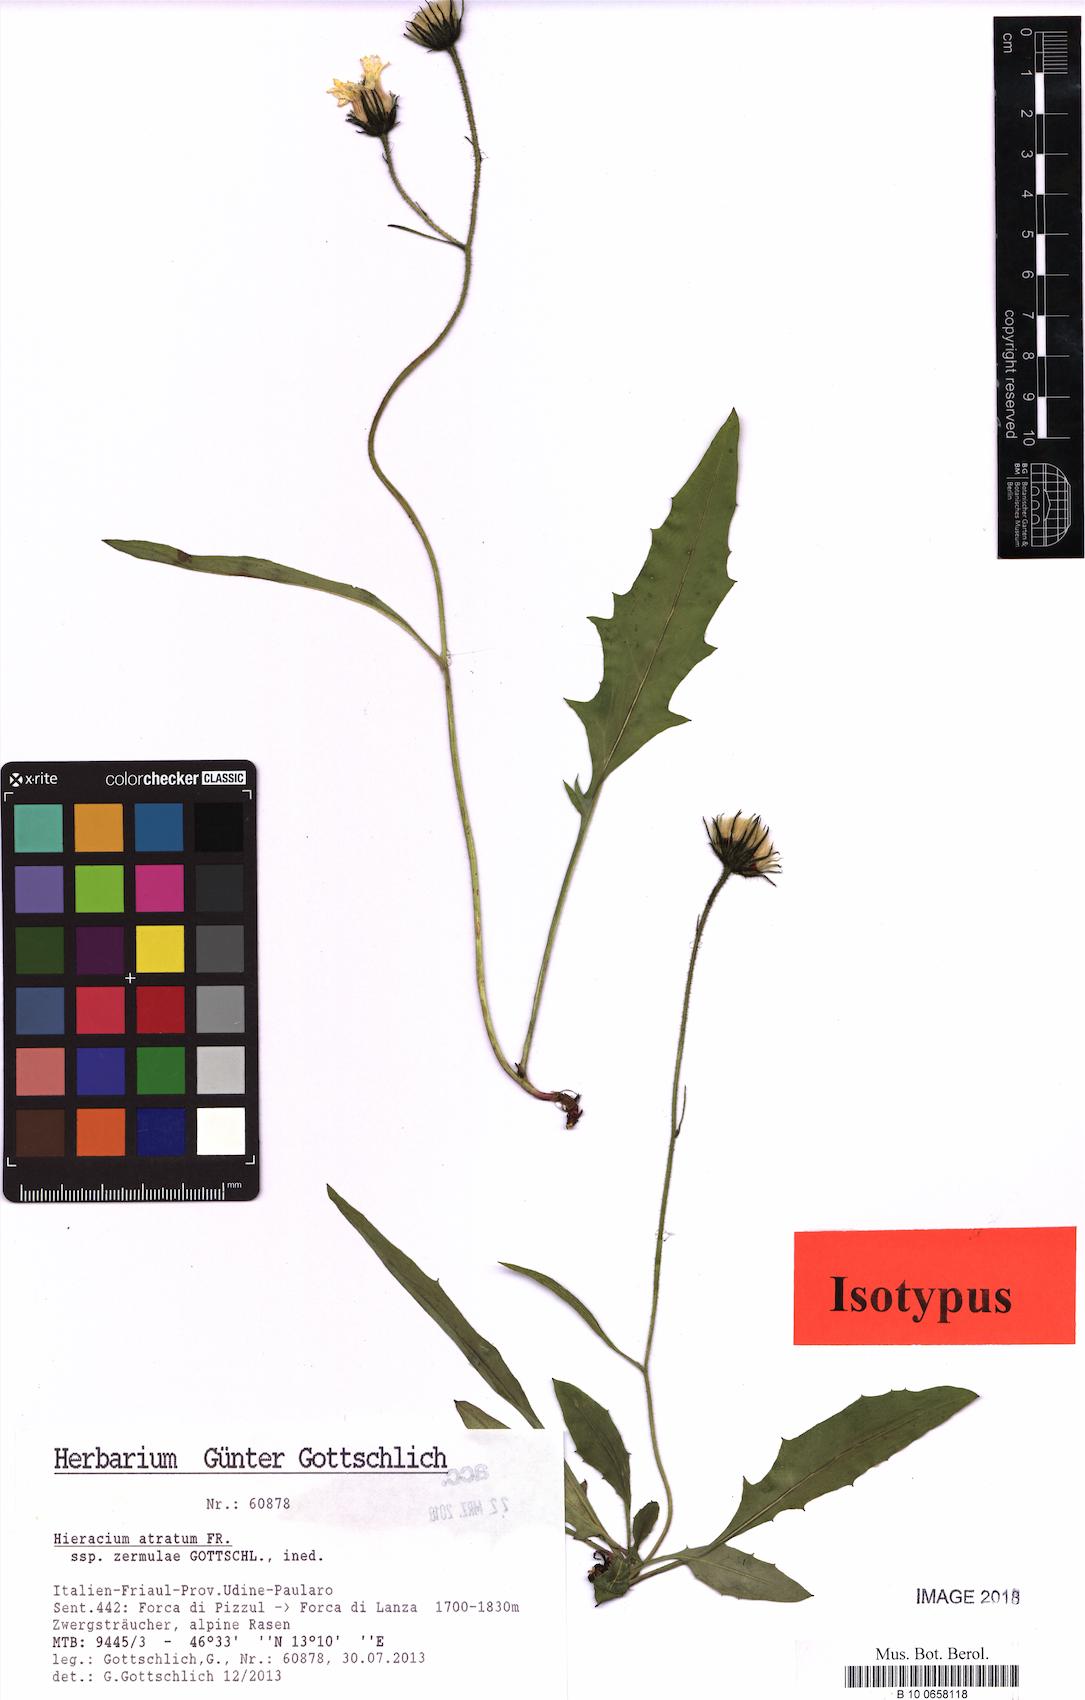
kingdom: Plantae
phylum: Tracheophyta
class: Magnoliopsida
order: Asterales
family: Asteraceae
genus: Hieracium
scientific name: Hieracium atratum
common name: Polar hawkweed
